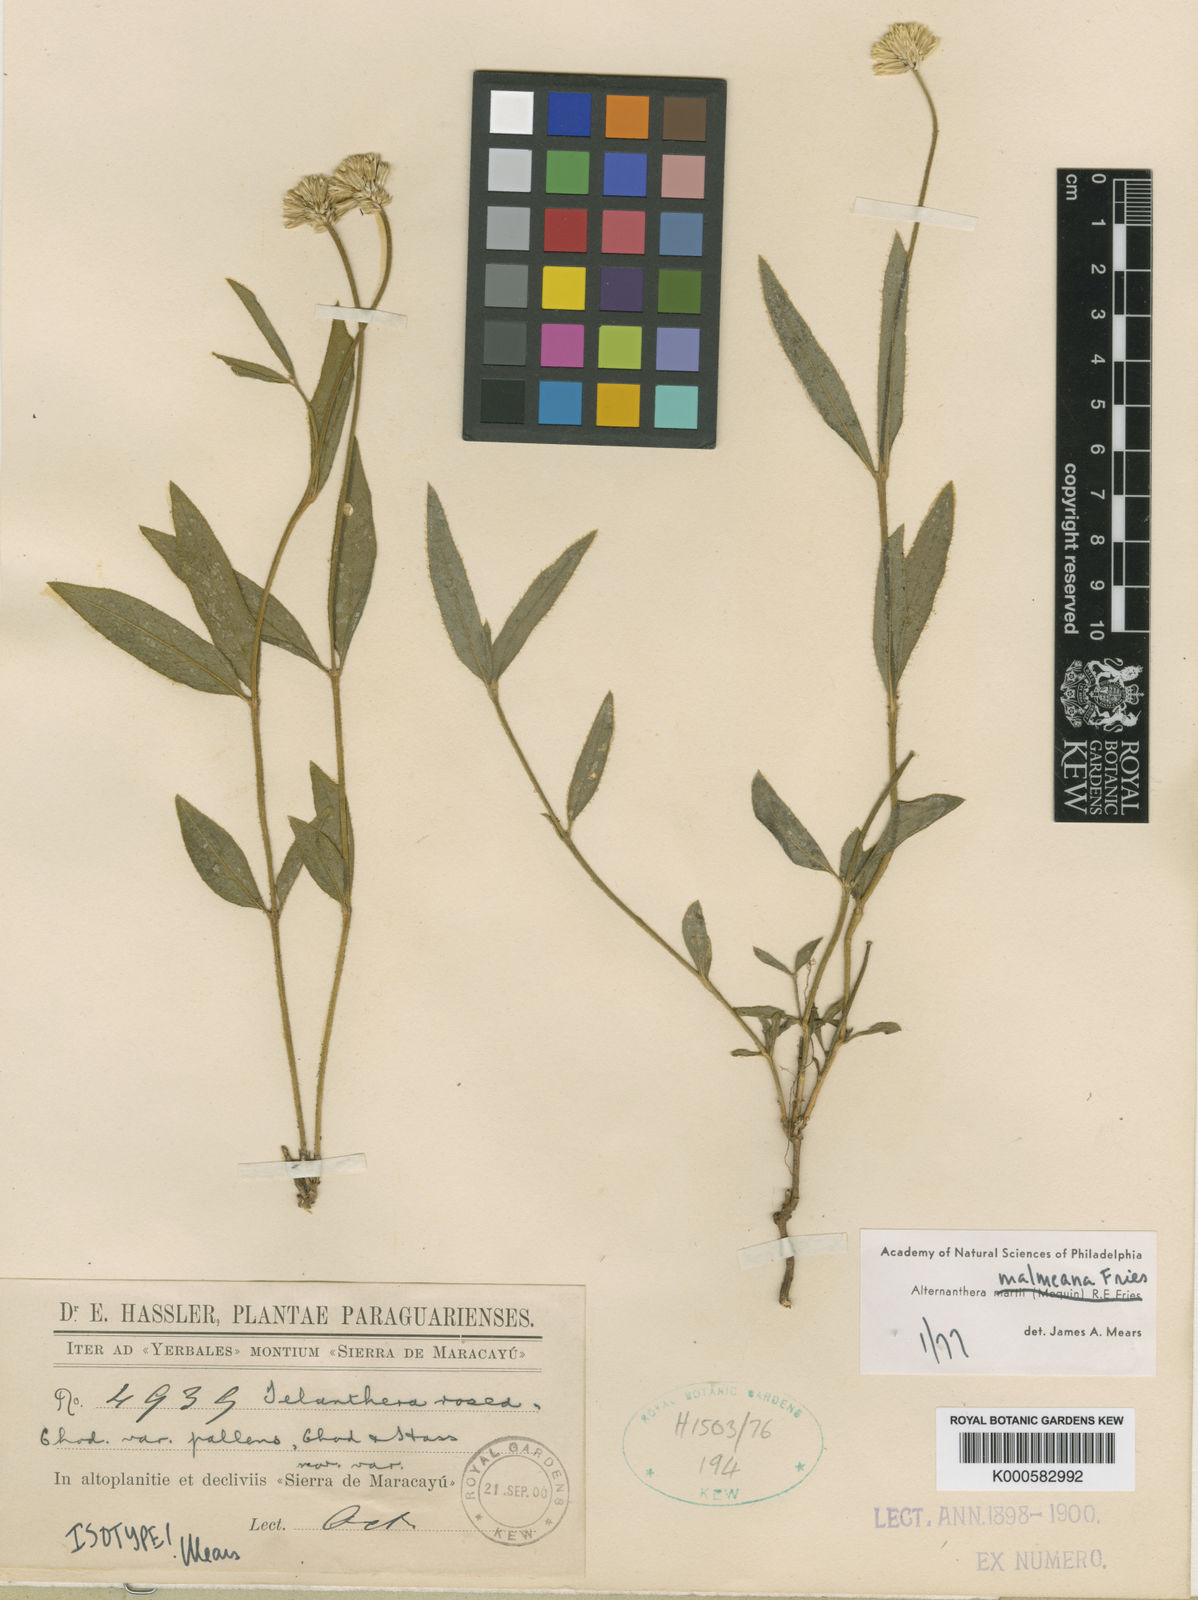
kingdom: Plantae
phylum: Tracheophyta
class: Magnoliopsida
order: Caryophyllales
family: Amaranthaceae
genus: Alternanthera
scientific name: Alternanthera malmeana
